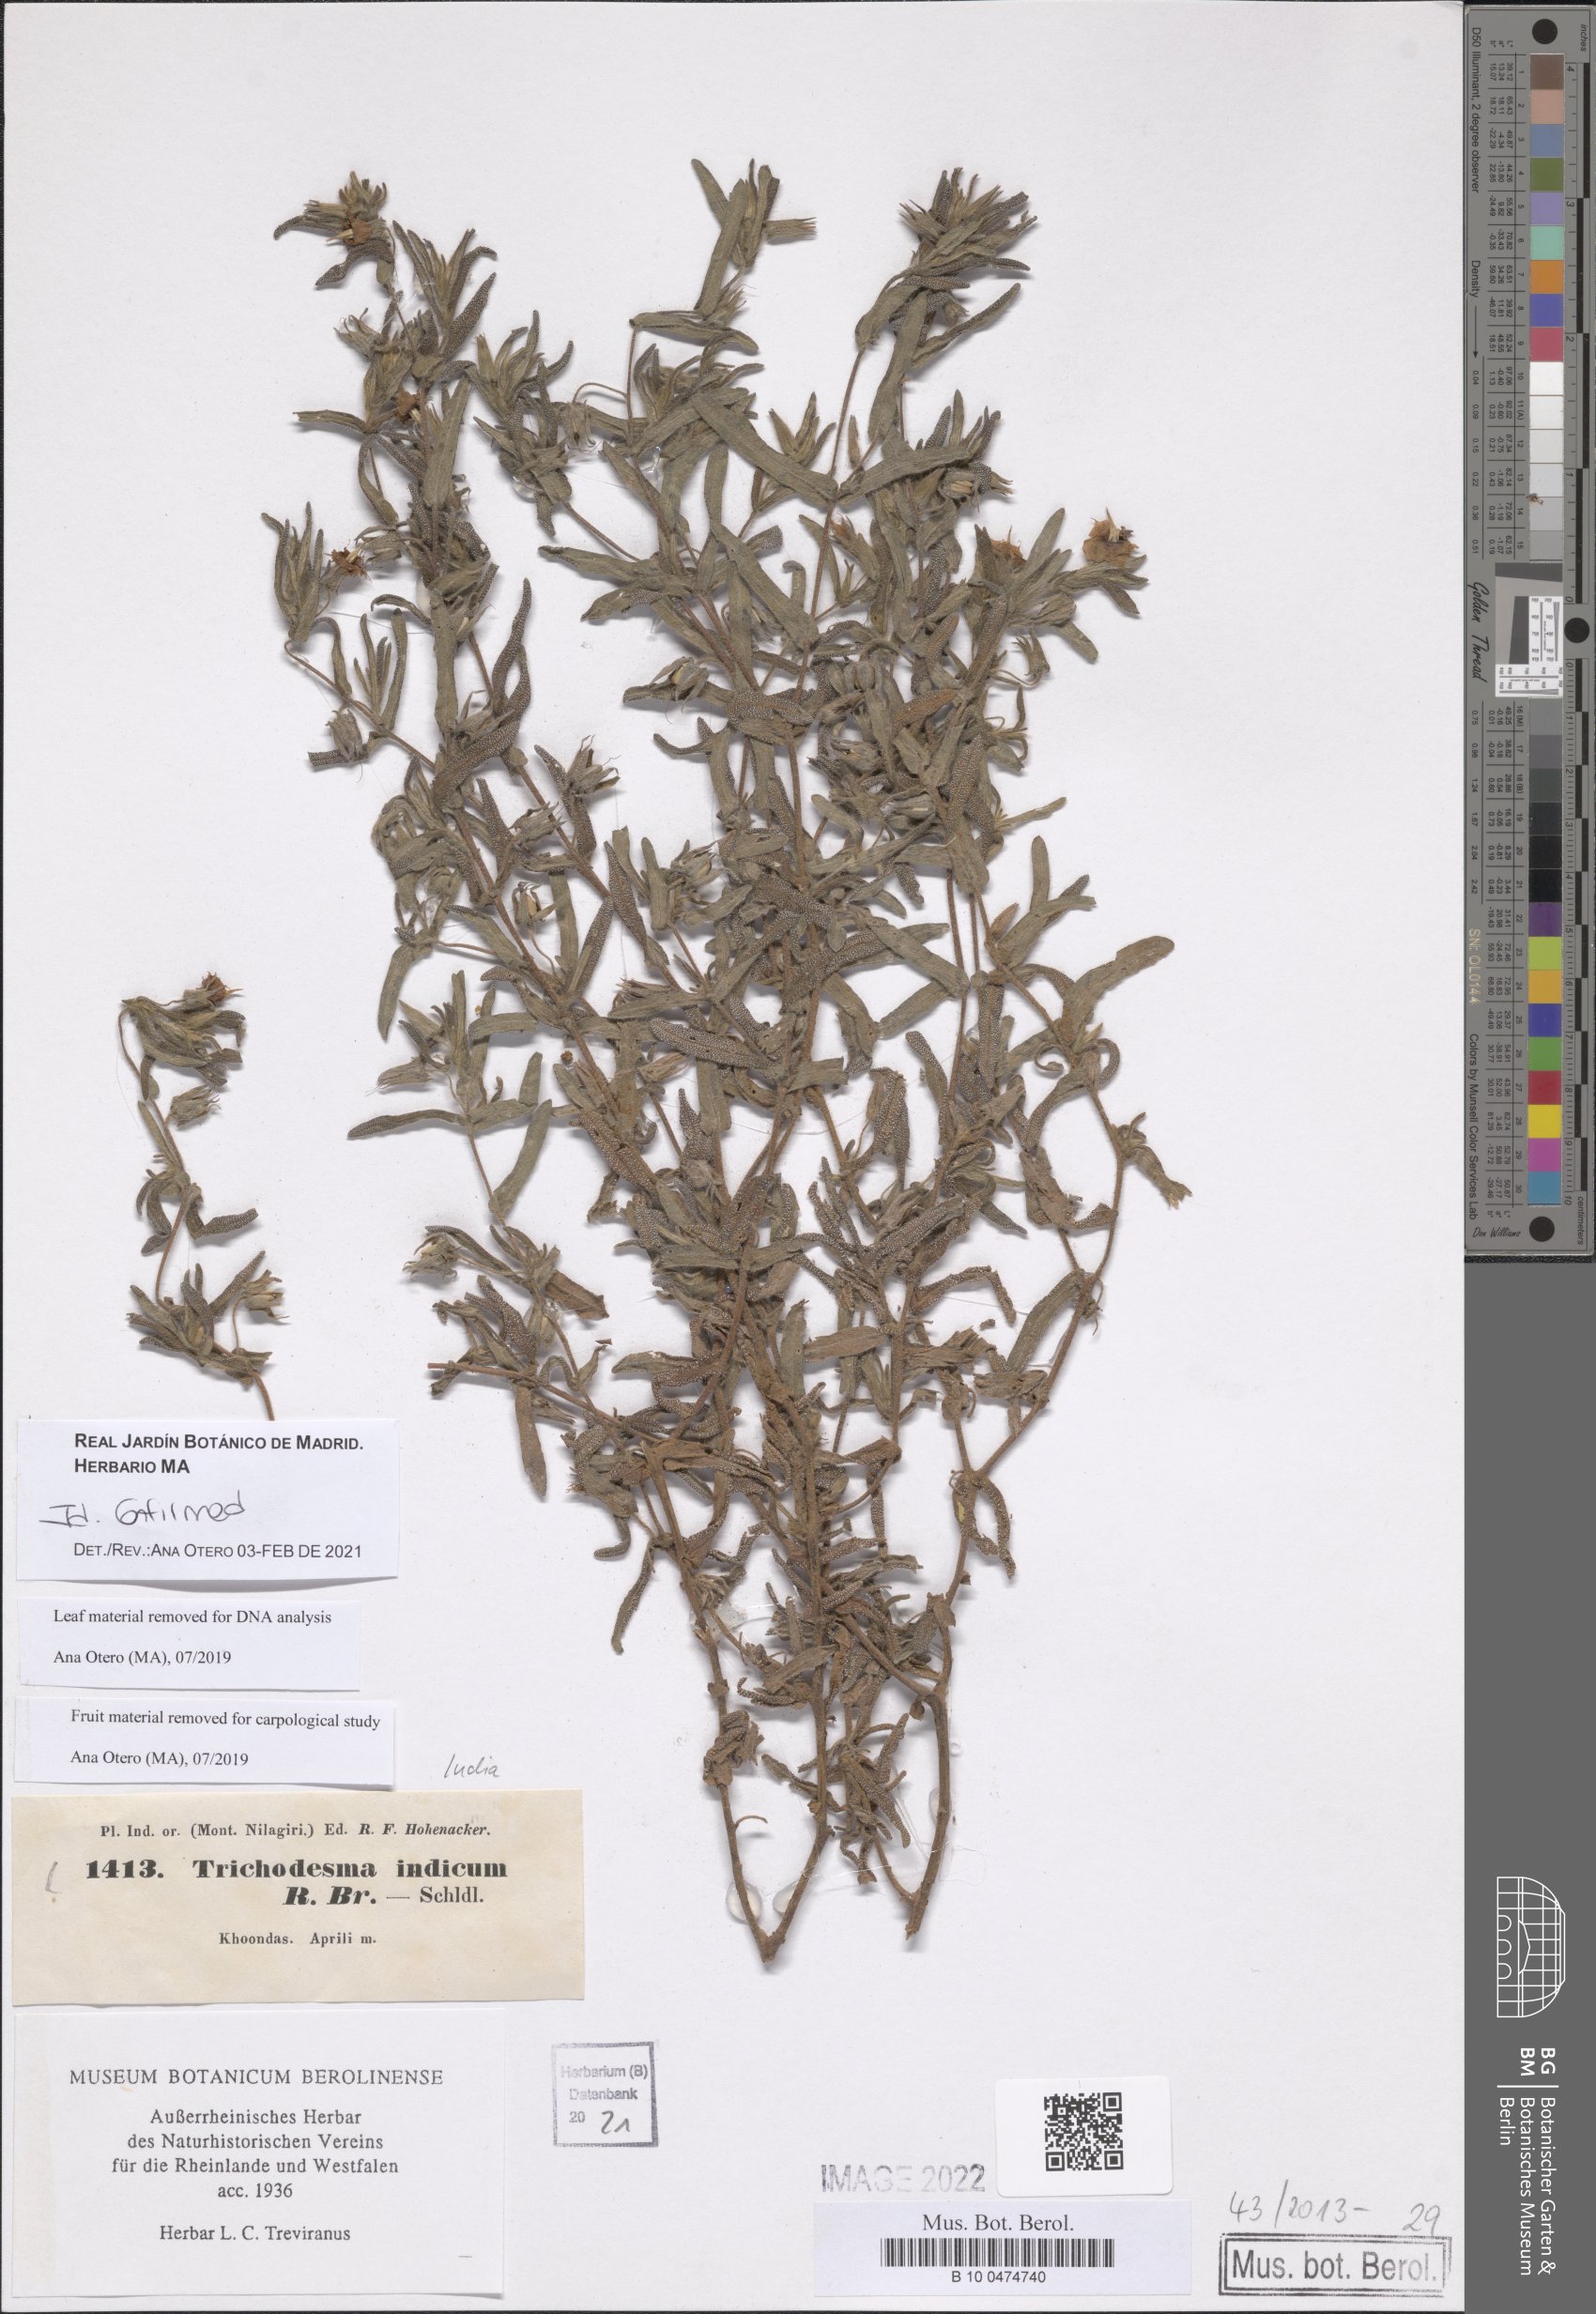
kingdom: Plantae
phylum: Tracheophyta
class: Magnoliopsida
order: Boraginales
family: Boraginaceae
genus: Trichodesma
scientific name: Trichodesma indicum
